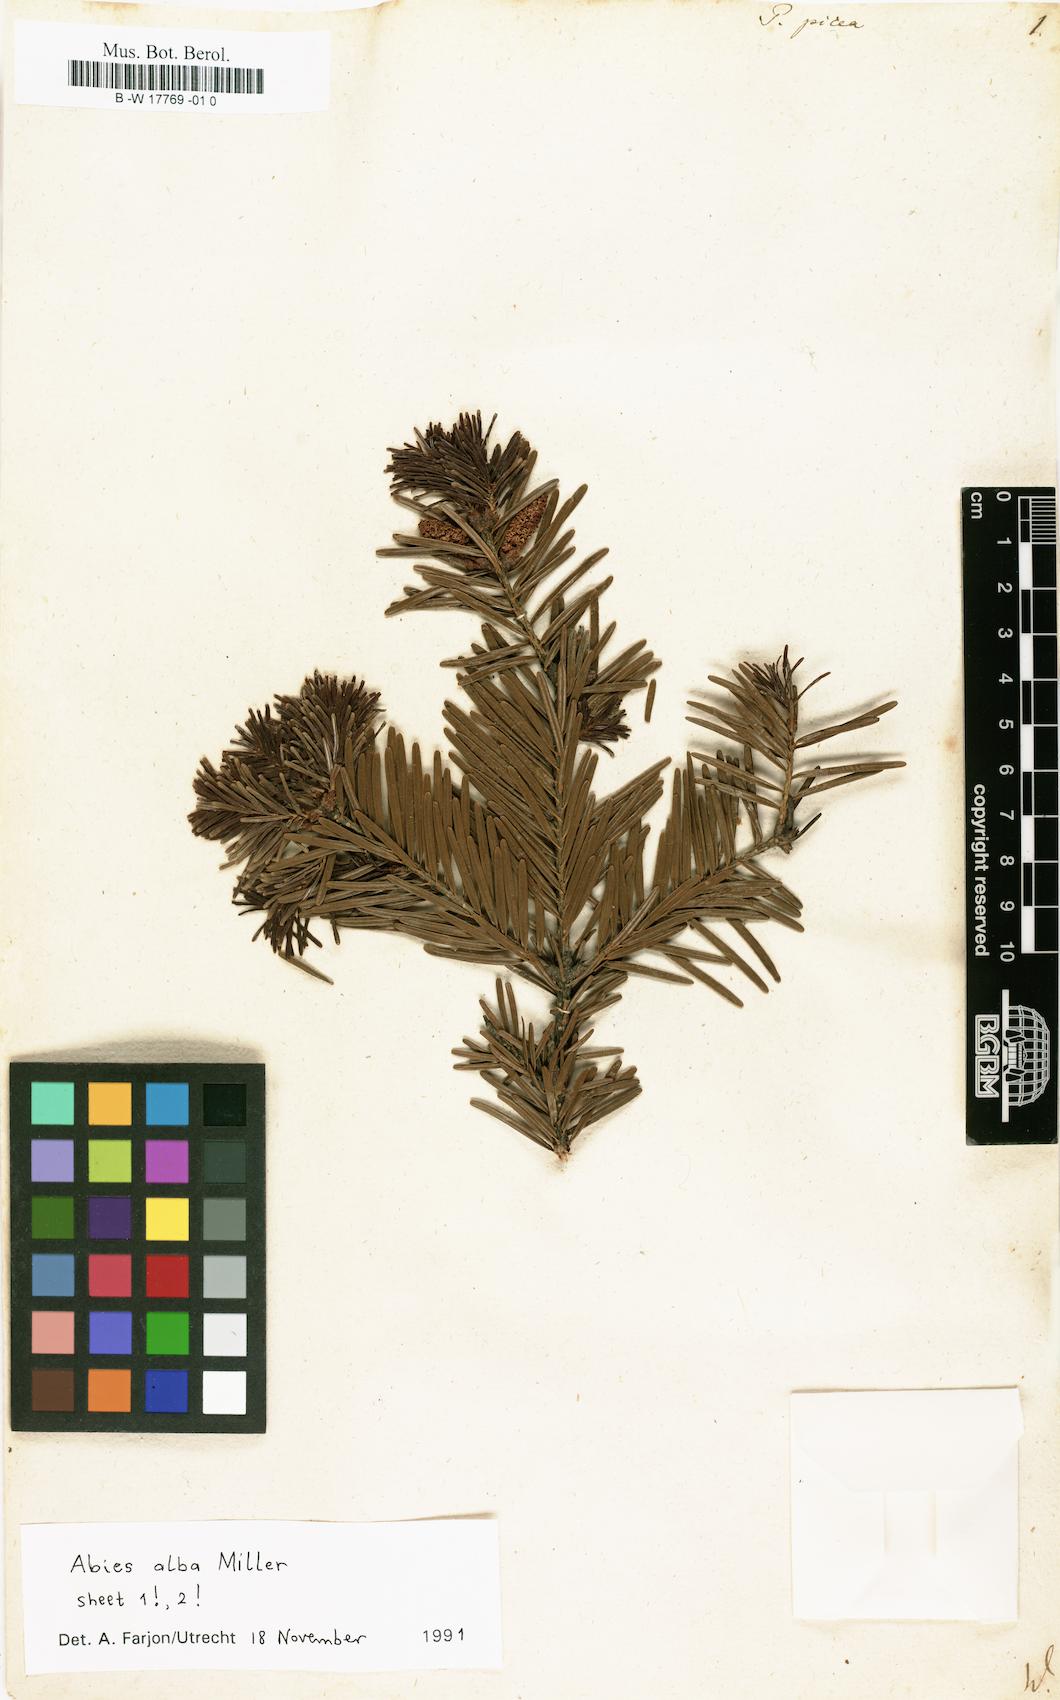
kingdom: Plantae
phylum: Tracheophyta
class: Pinopsida
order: Pinales
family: Pinaceae
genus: Pinus
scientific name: Pinus picea
